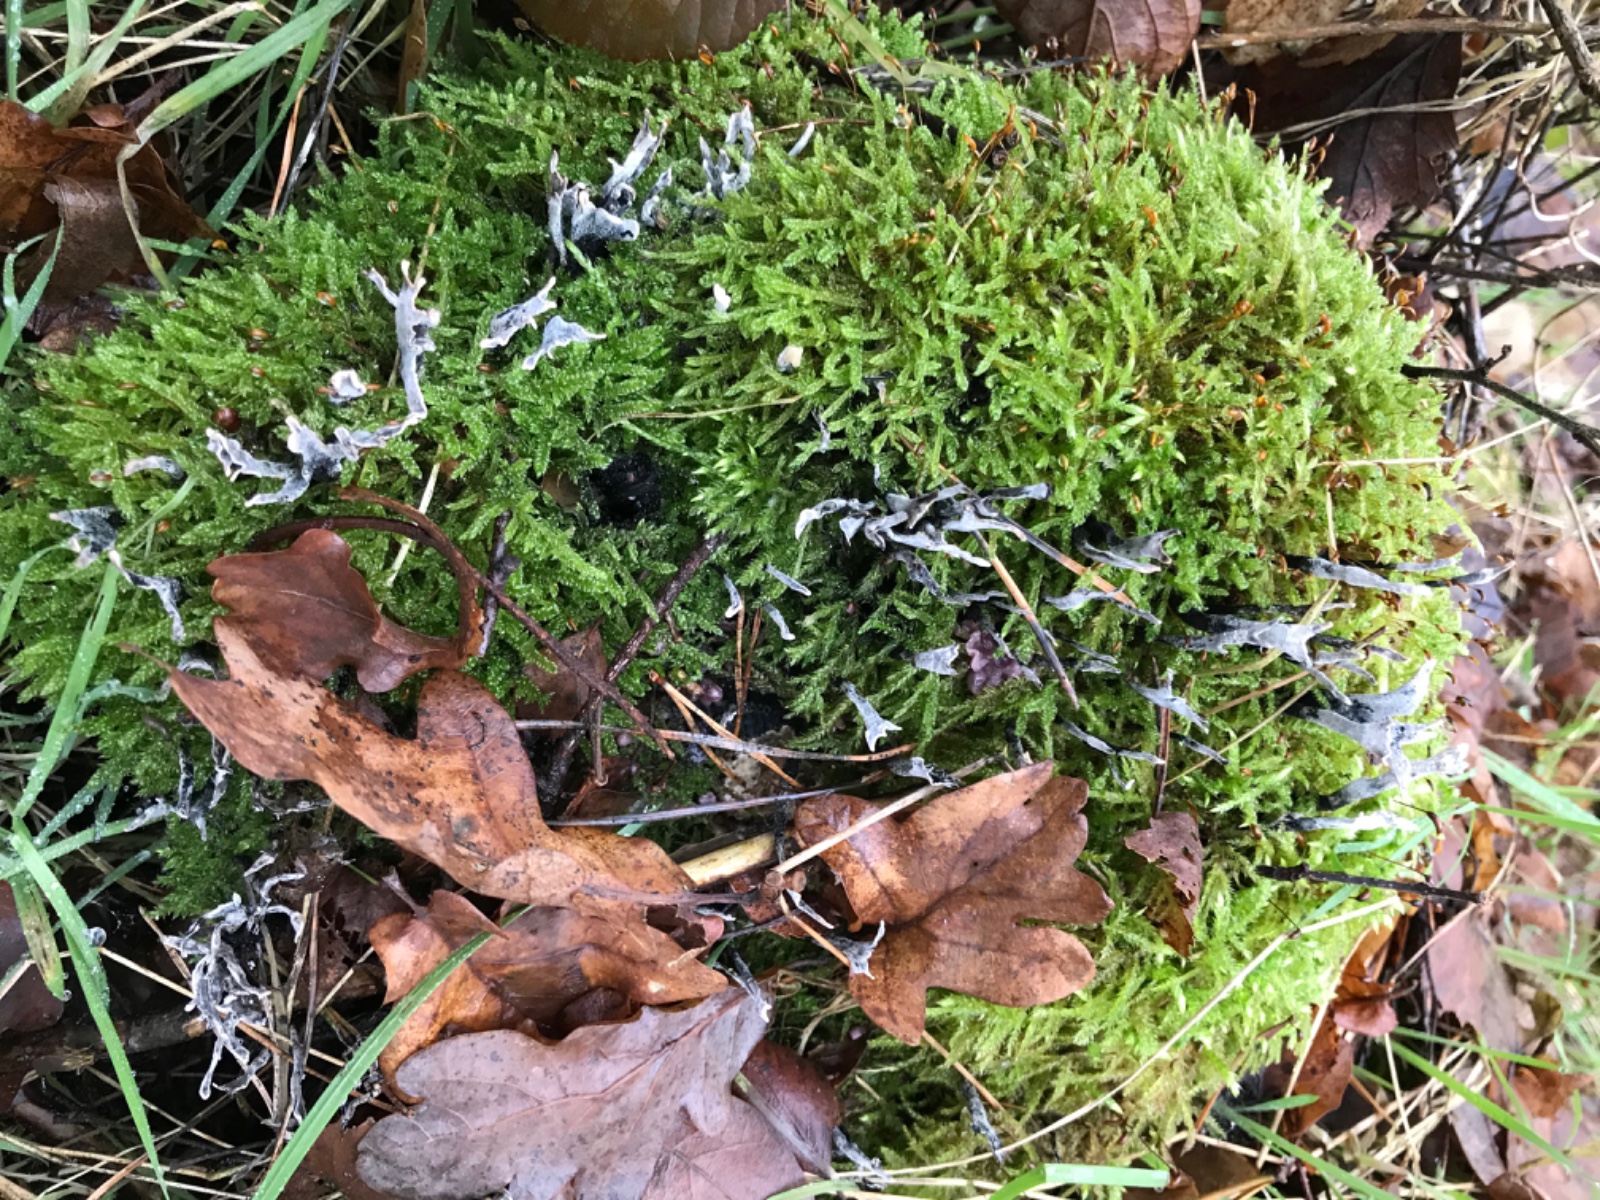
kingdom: Fungi
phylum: Ascomycota
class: Sordariomycetes
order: Xylariales
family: Xylariaceae
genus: Xylaria
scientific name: Xylaria hypoxylon
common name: grenet stødsvamp
